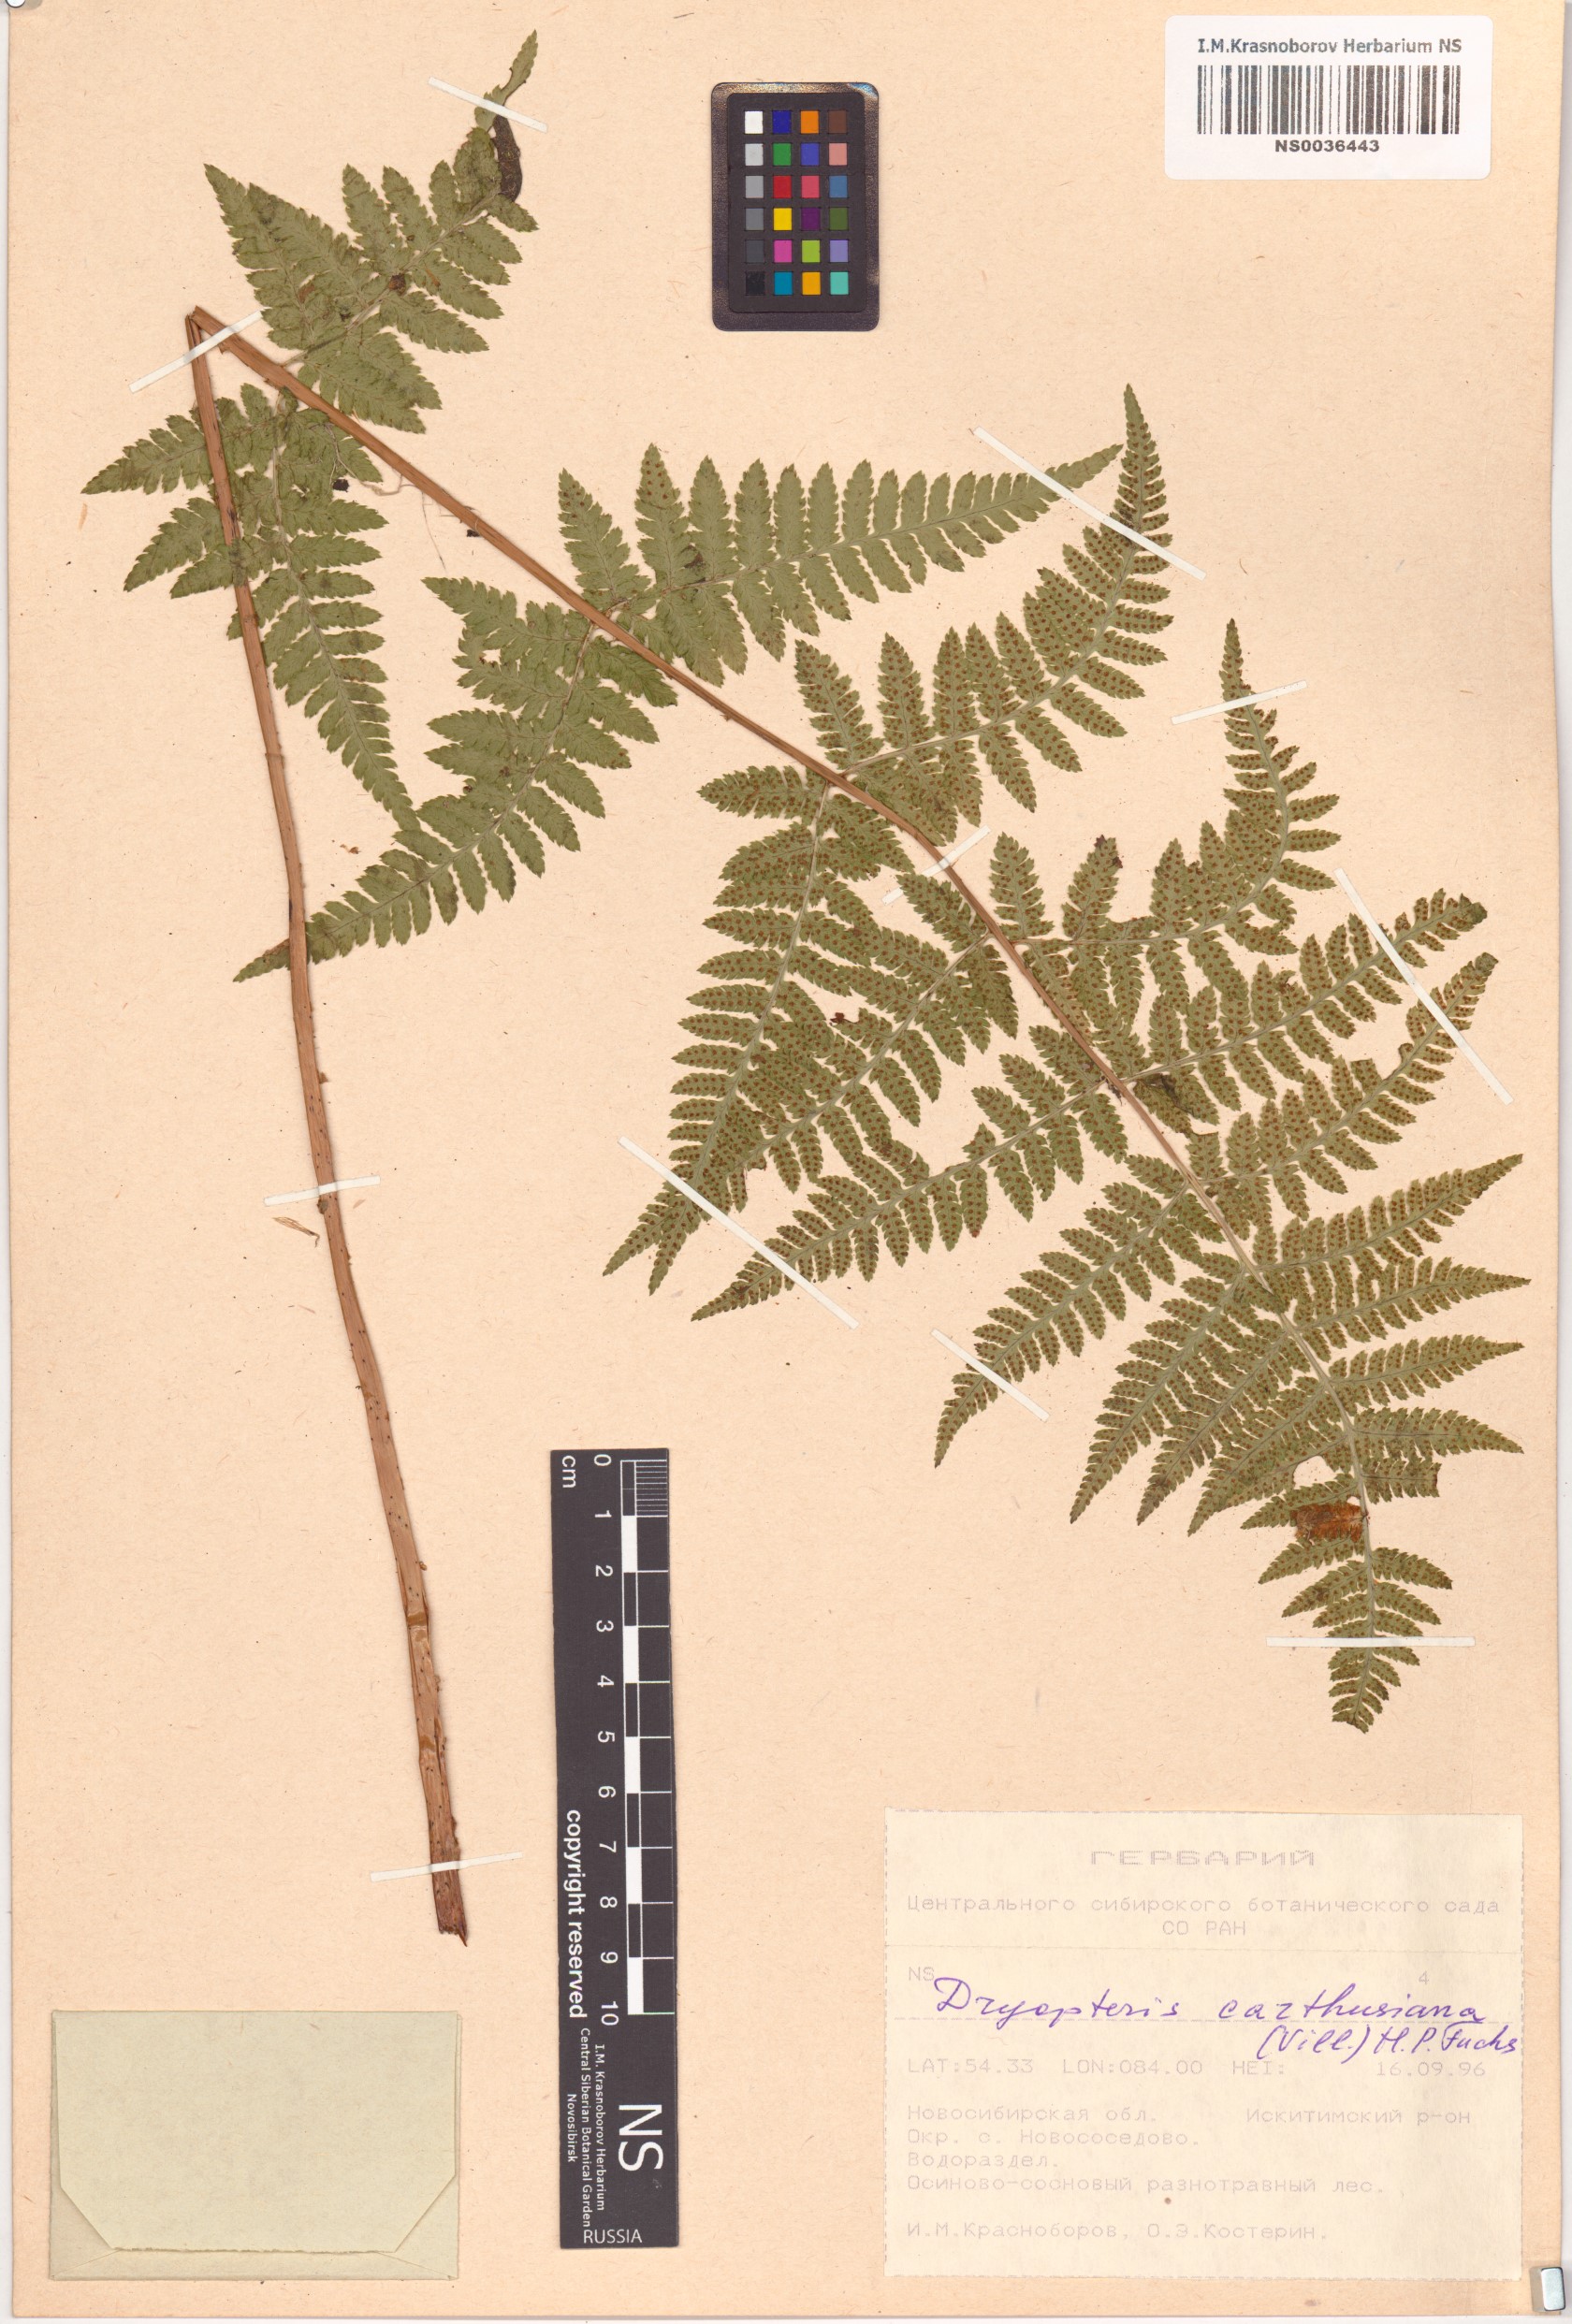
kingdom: Plantae
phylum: Tracheophyta
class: Polypodiopsida
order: Polypodiales
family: Dryopteridaceae
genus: Dryopteris
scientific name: Dryopteris carthusiana
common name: Narrow buckler-fern
